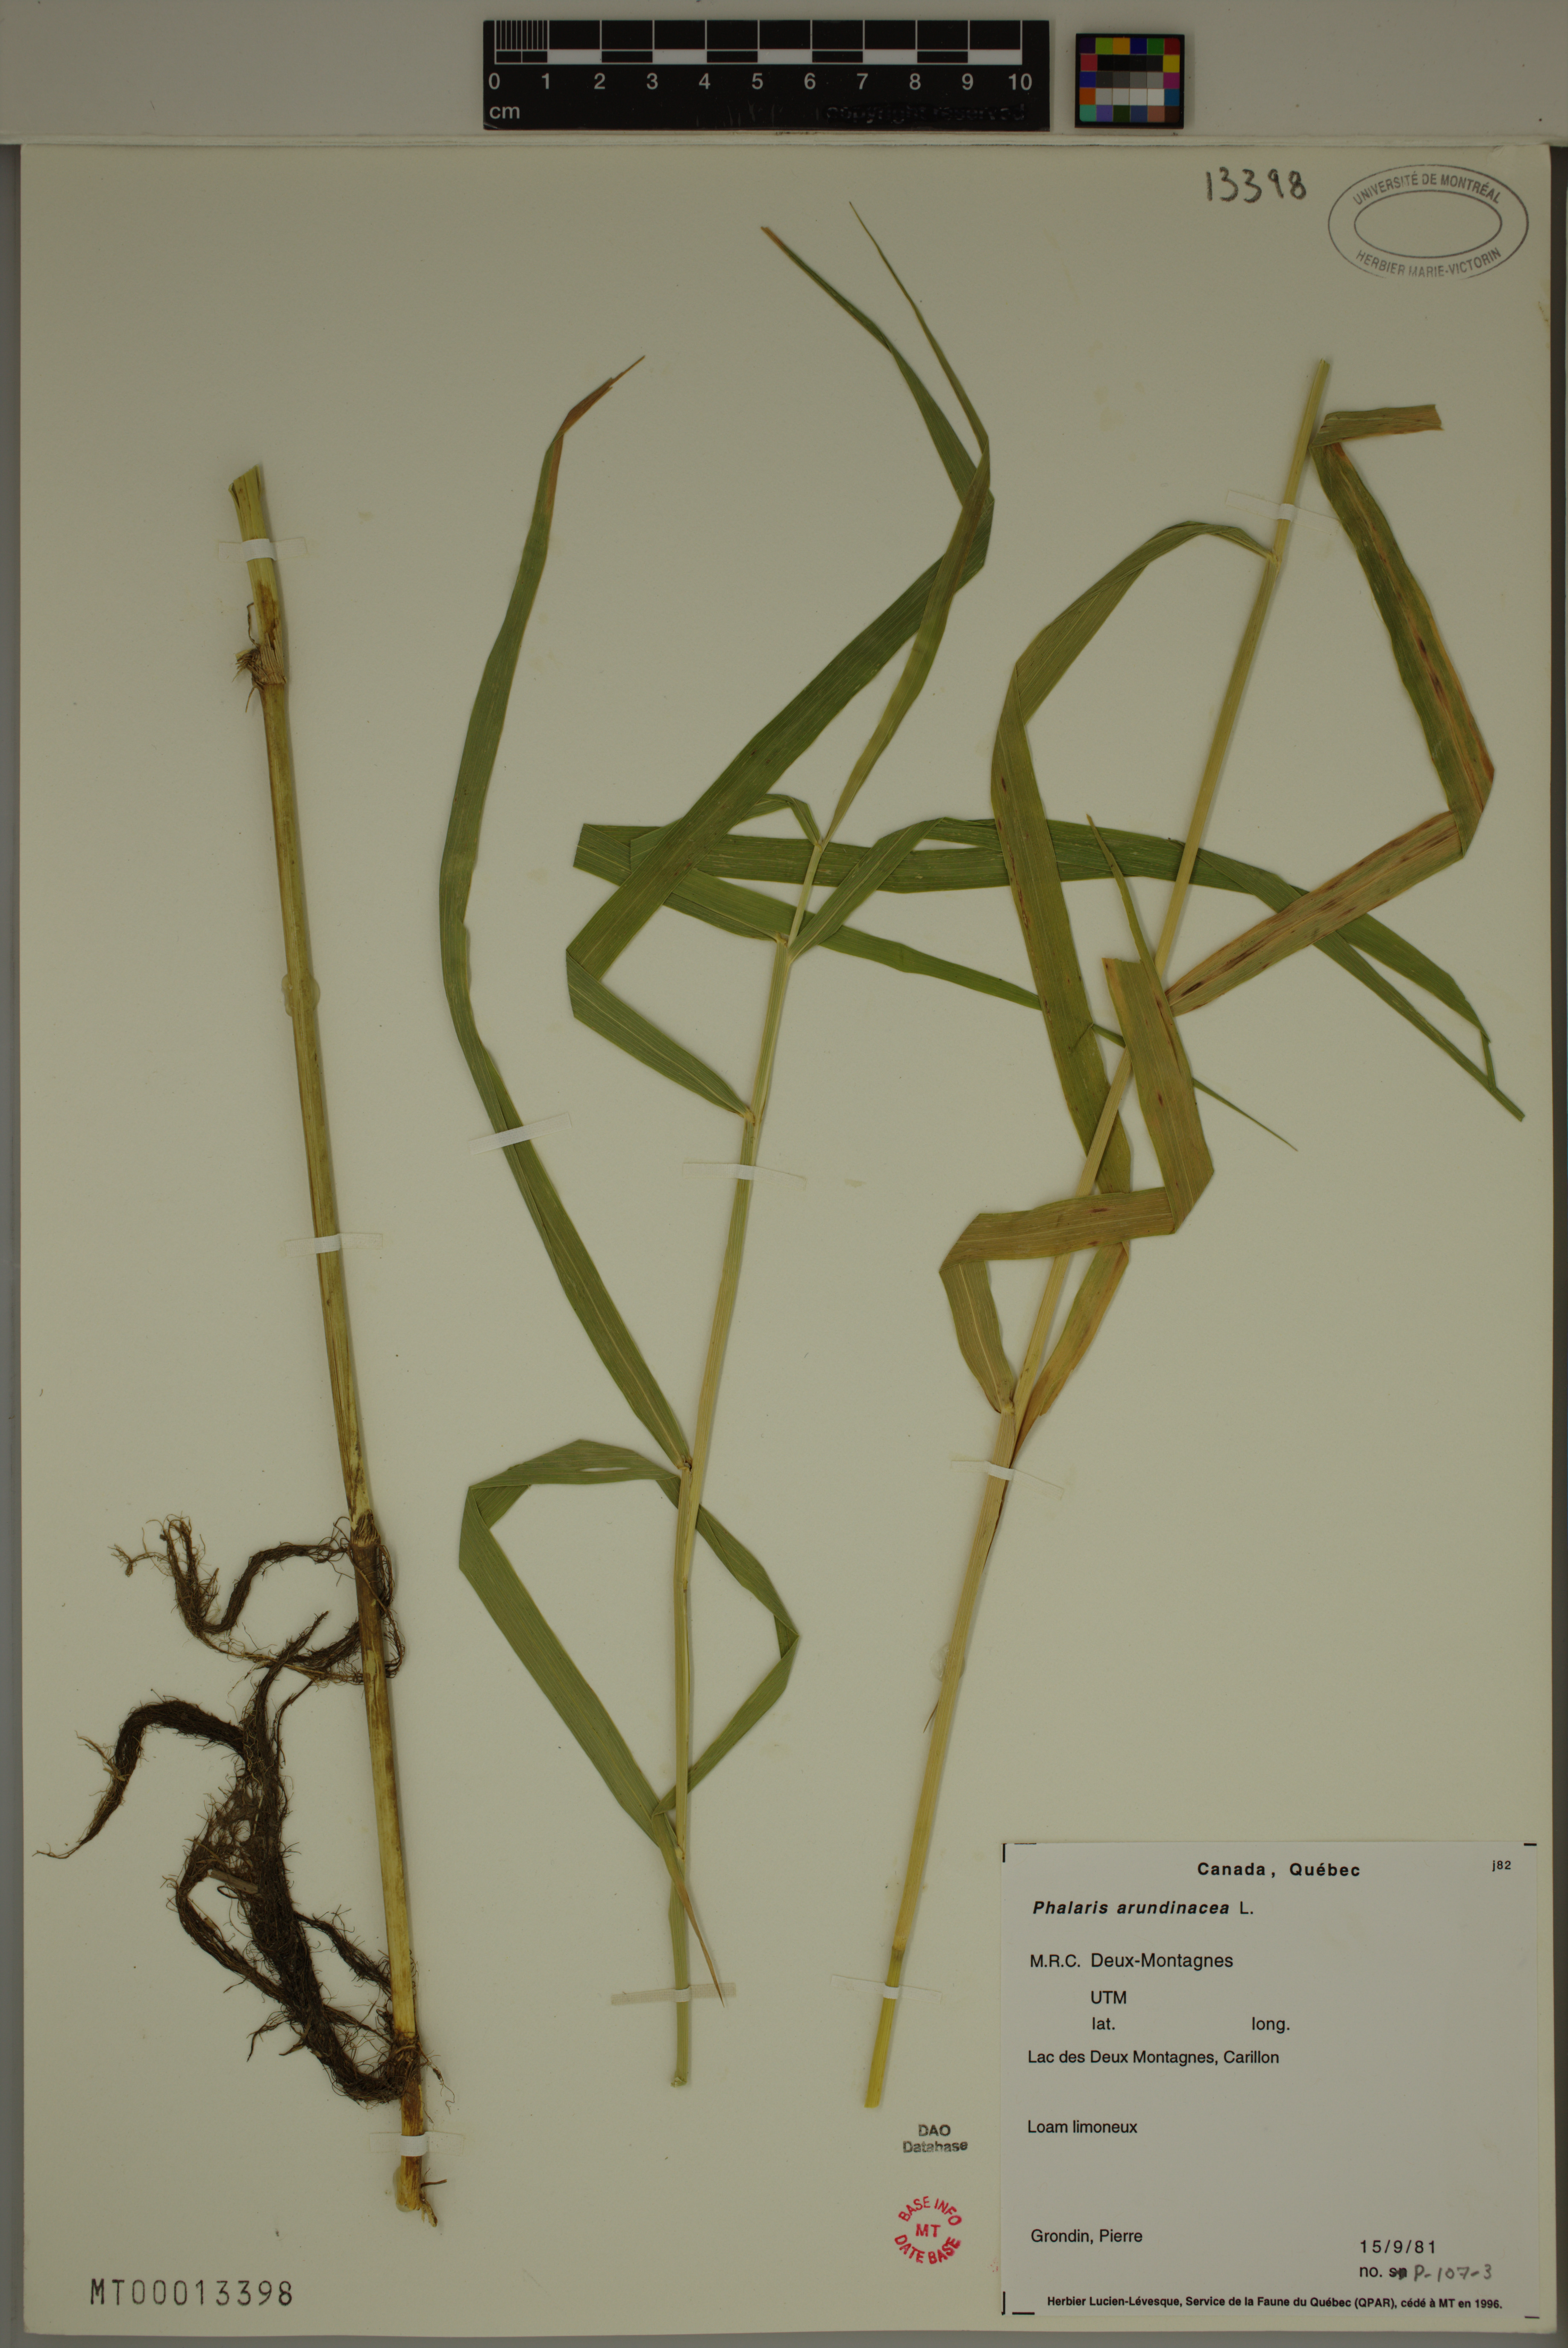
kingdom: Plantae
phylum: Tracheophyta
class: Liliopsida
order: Poales
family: Poaceae
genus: Phalaris
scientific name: Phalaris arundinacea
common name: Reed canary-grass
